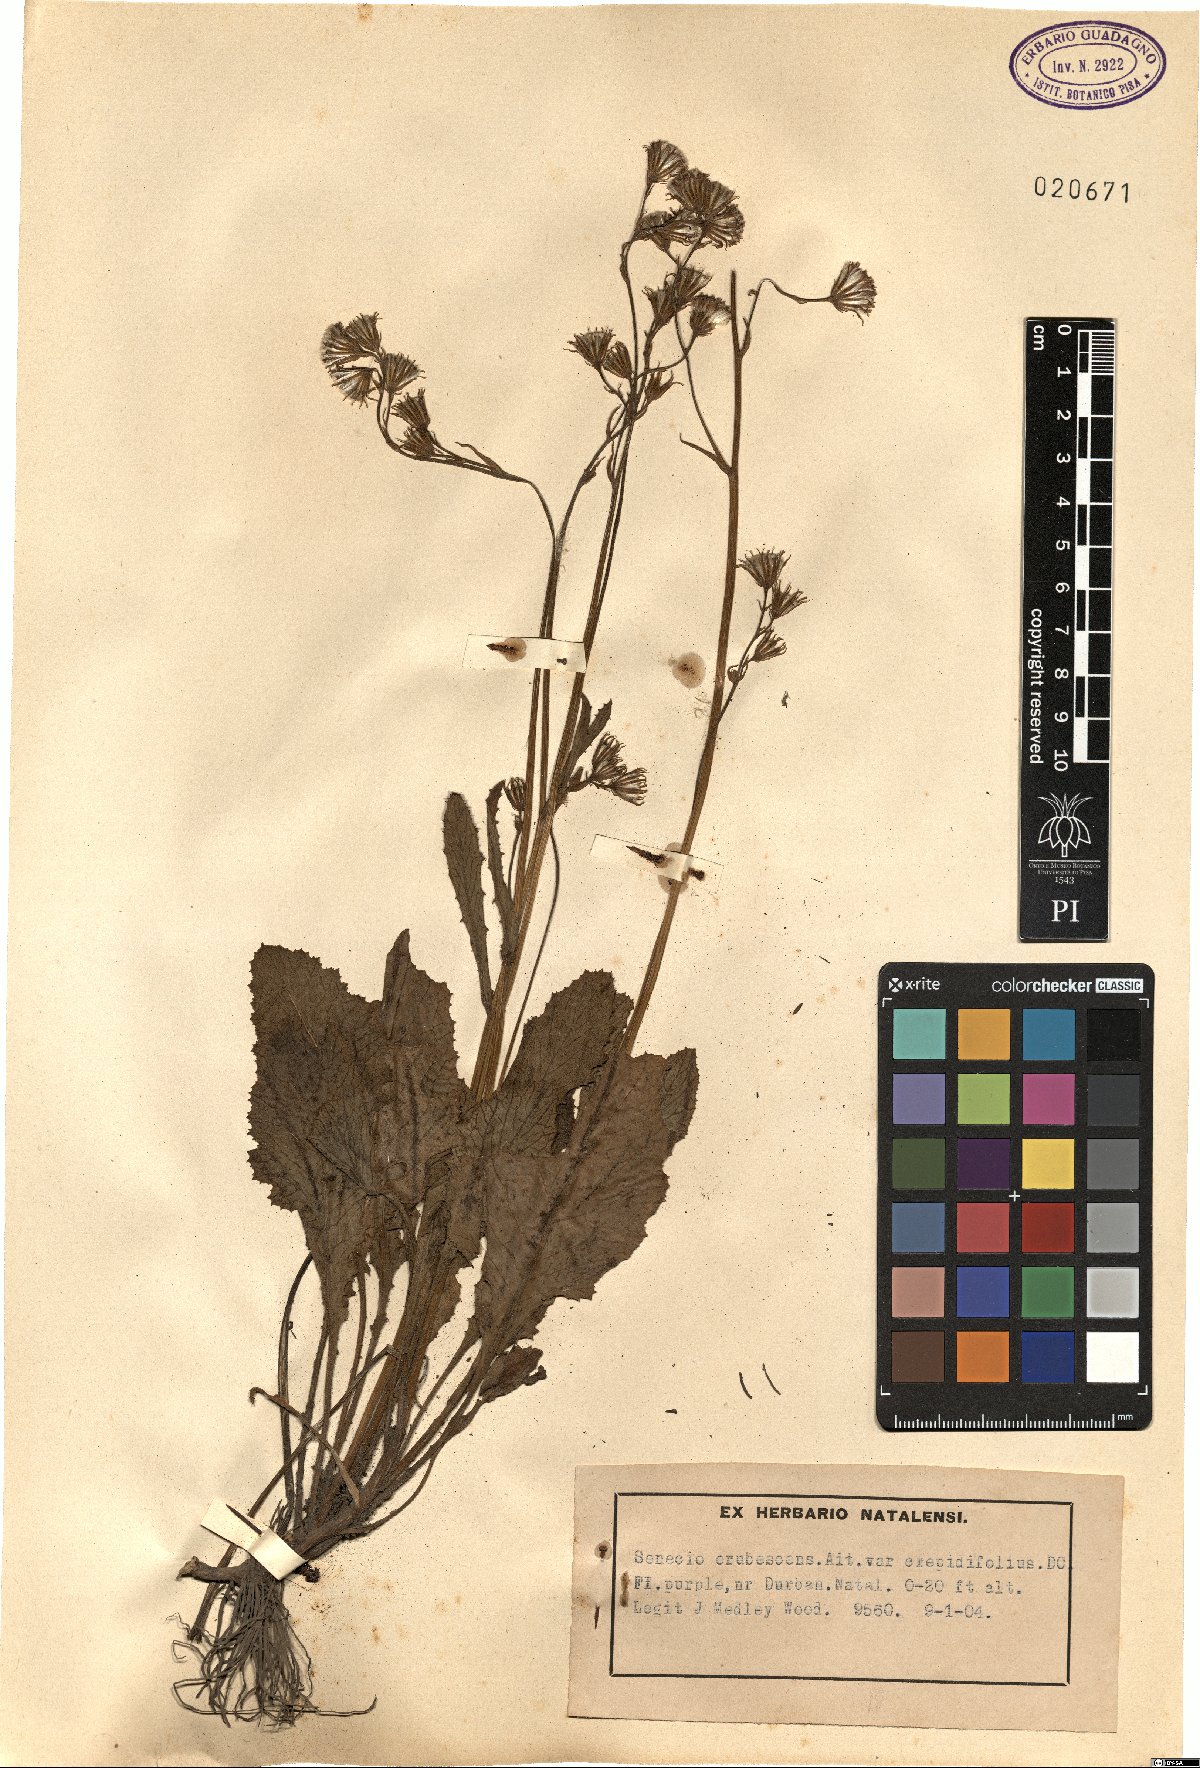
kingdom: Plantae
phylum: Tracheophyta
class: Magnoliopsida
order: Asterales
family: Asteraceae
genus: Senecio
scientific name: Senecio erubescens
